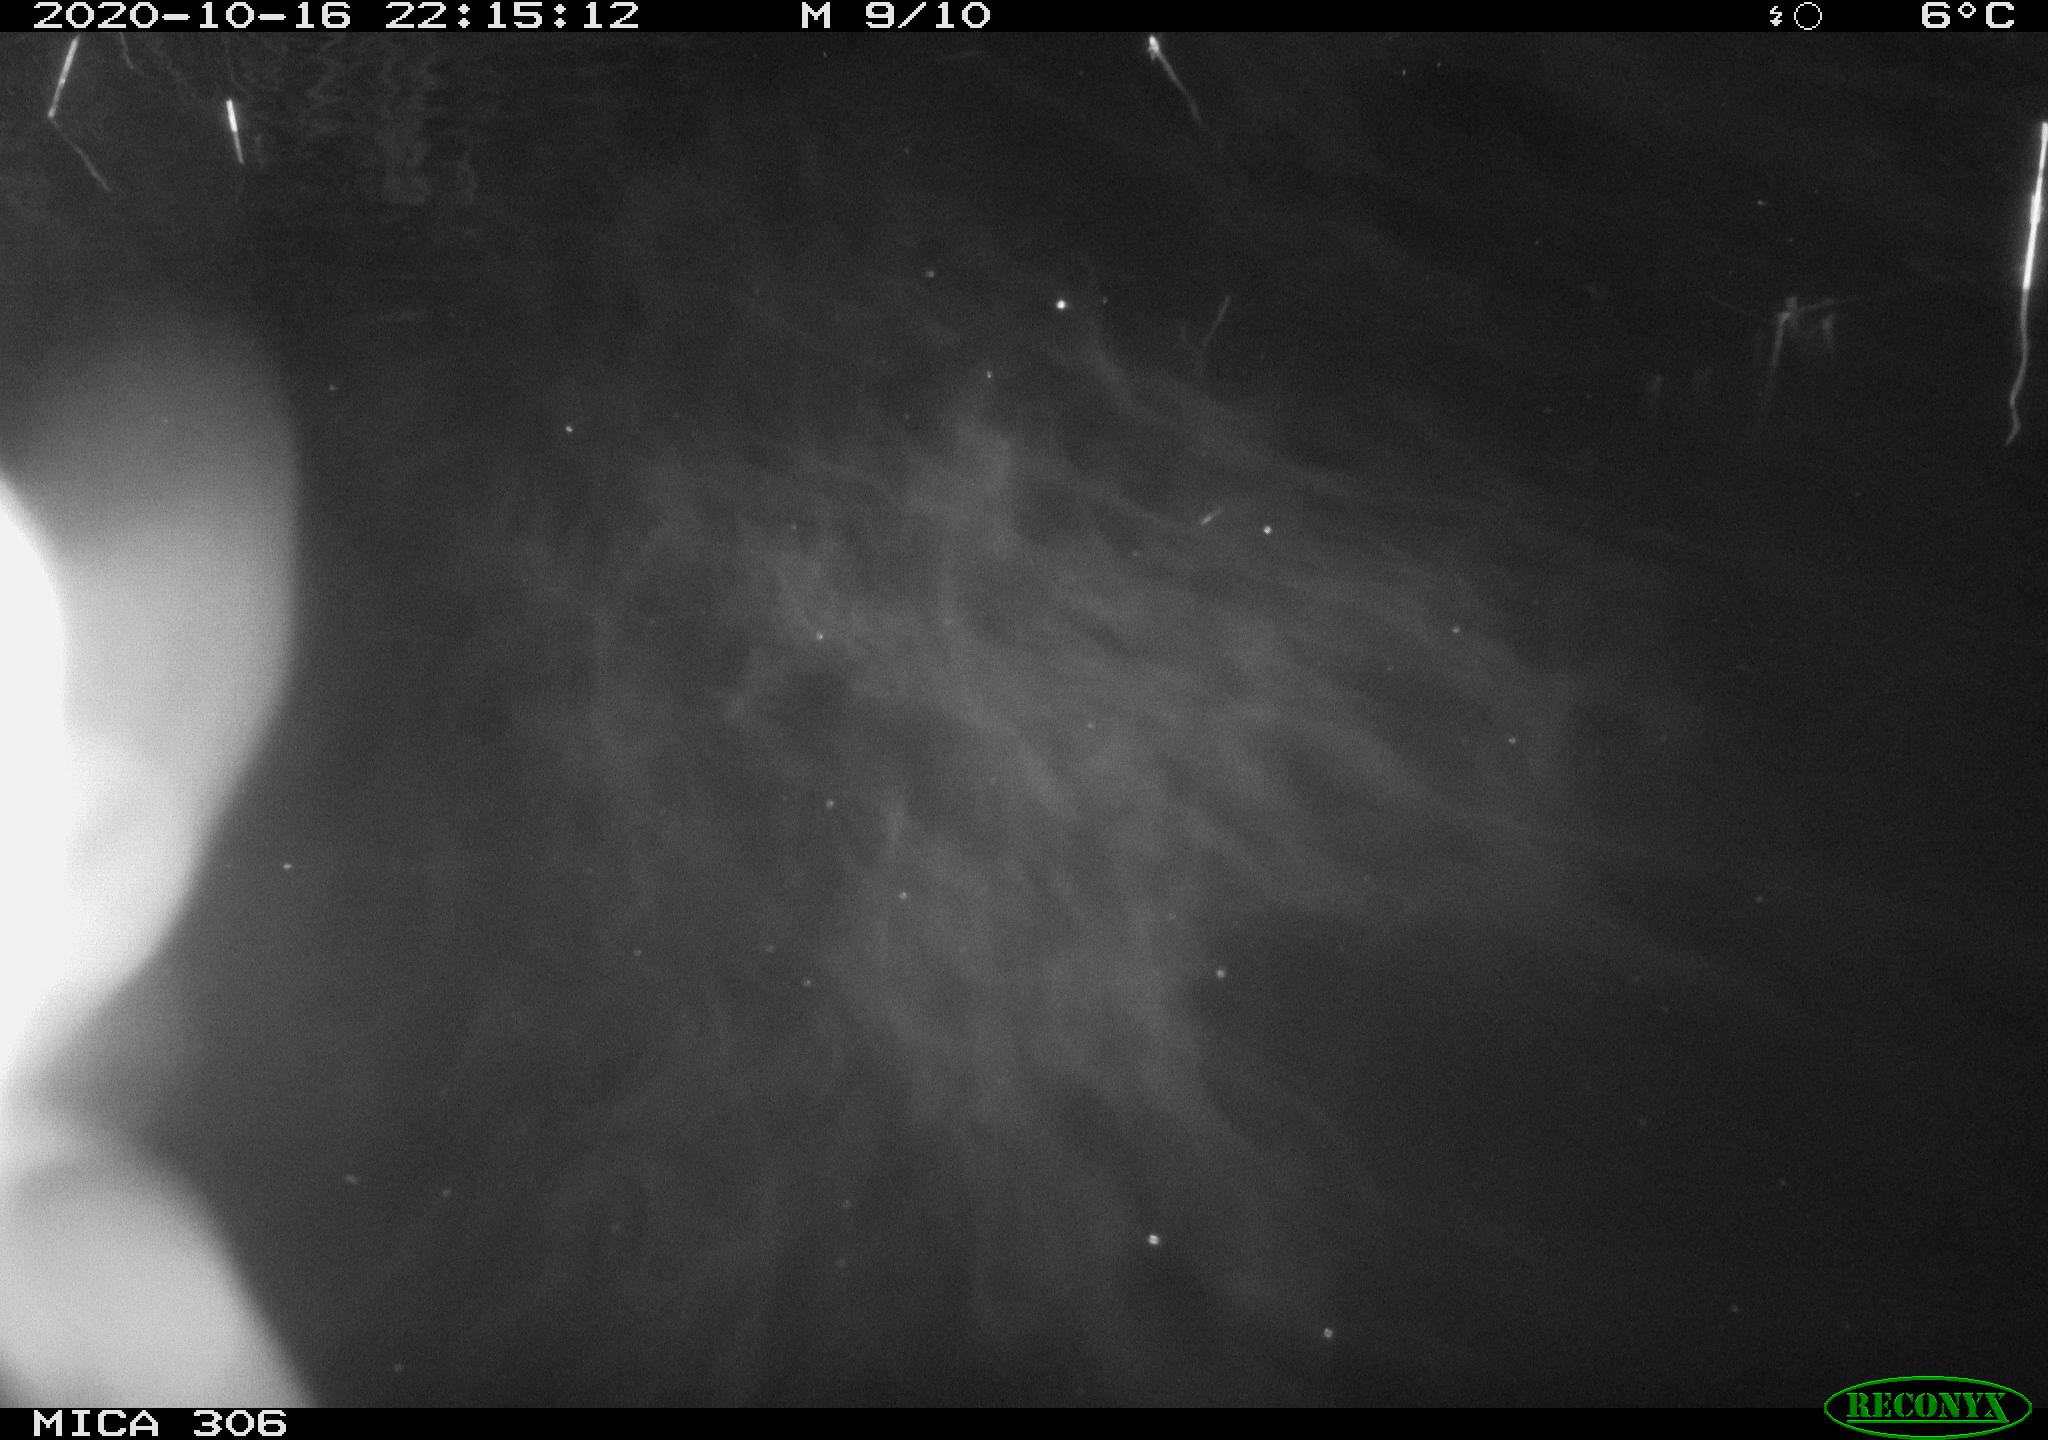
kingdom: Animalia
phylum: Chordata
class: Mammalia
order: Rodentia
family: Cricetidae
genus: Ondatra
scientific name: Ondatra zibethicus
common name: Muskrat
